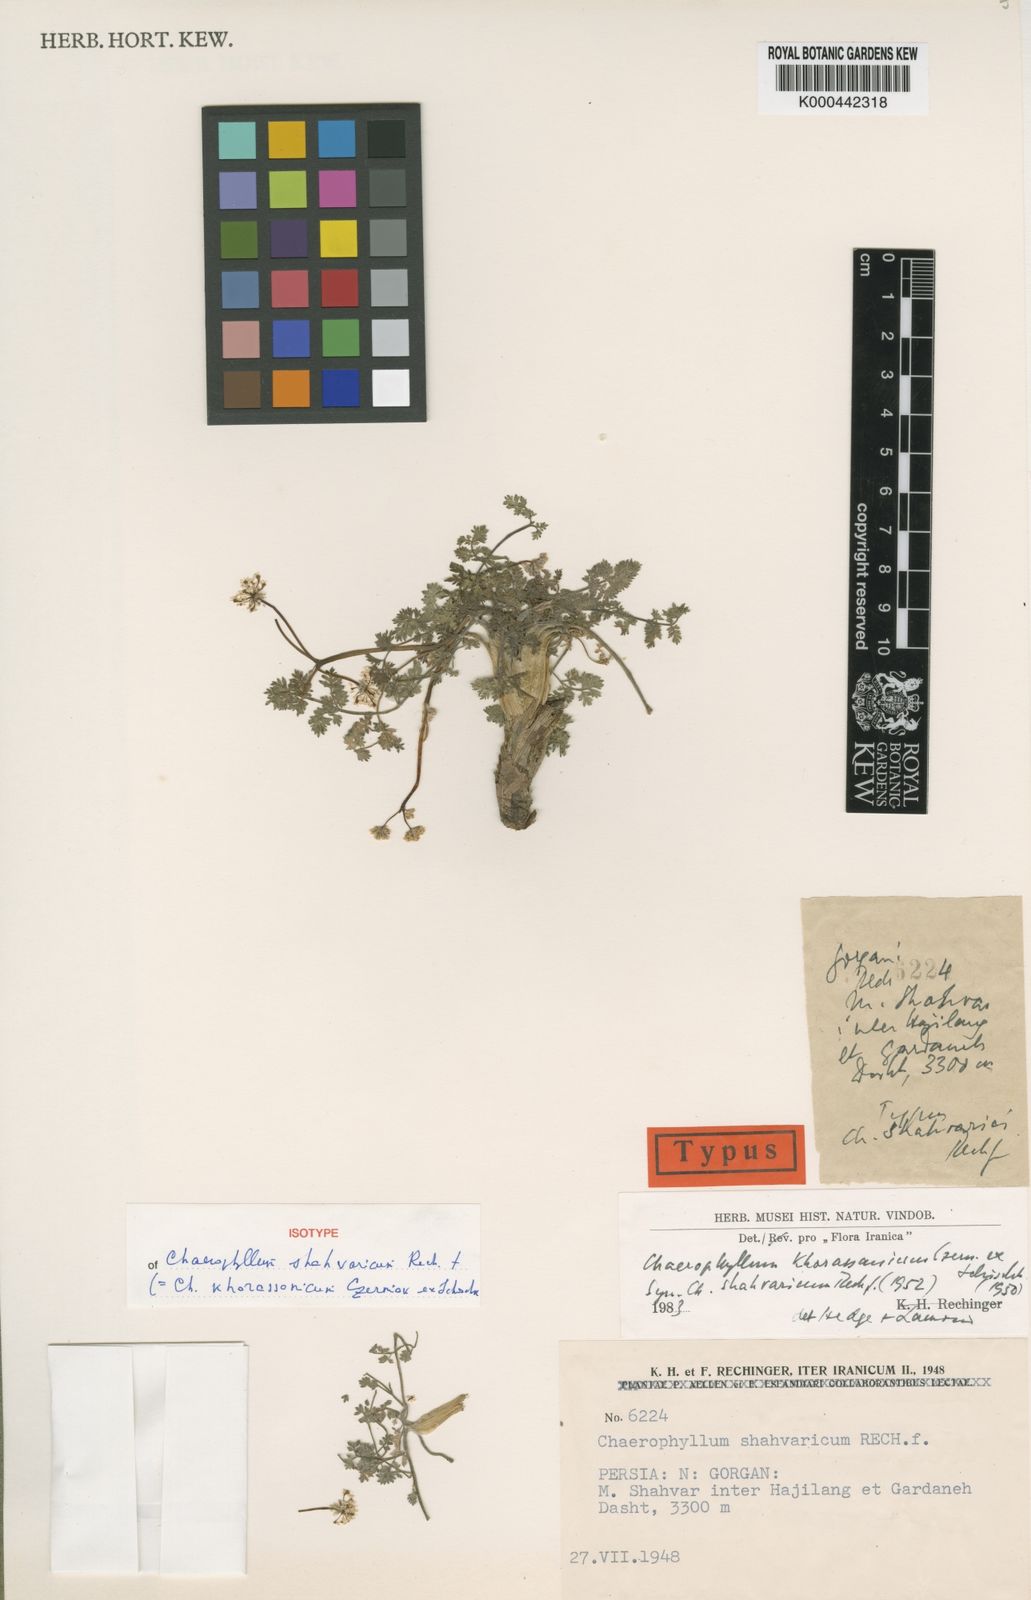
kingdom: Plantae
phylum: Tracheophyta
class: Magnoliopsida
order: Apiales
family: Apiaceae
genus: Chaerophyllum
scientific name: Chaerophyllum khorossanicum
